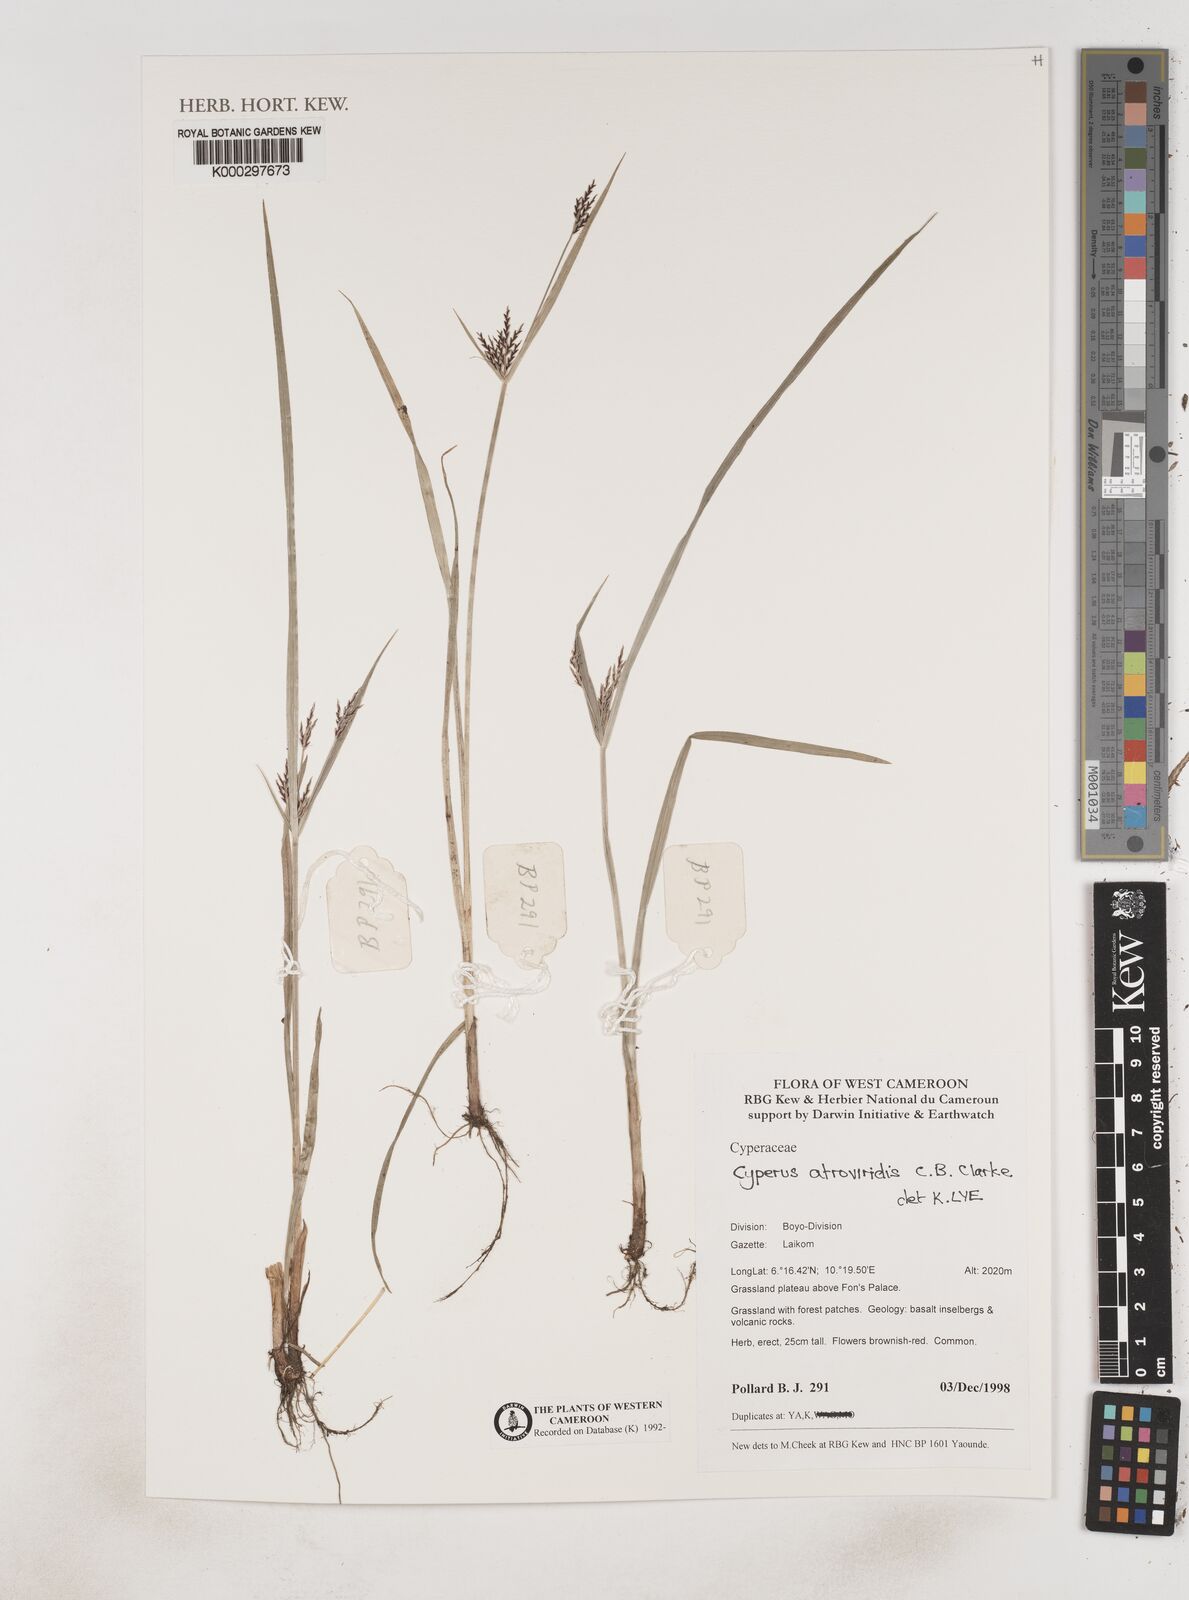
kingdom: Plantae
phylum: Tracheophyta
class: Liliopsida
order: Poales
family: Cyperaceae
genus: Cyperus
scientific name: Cyperus aterrimus
